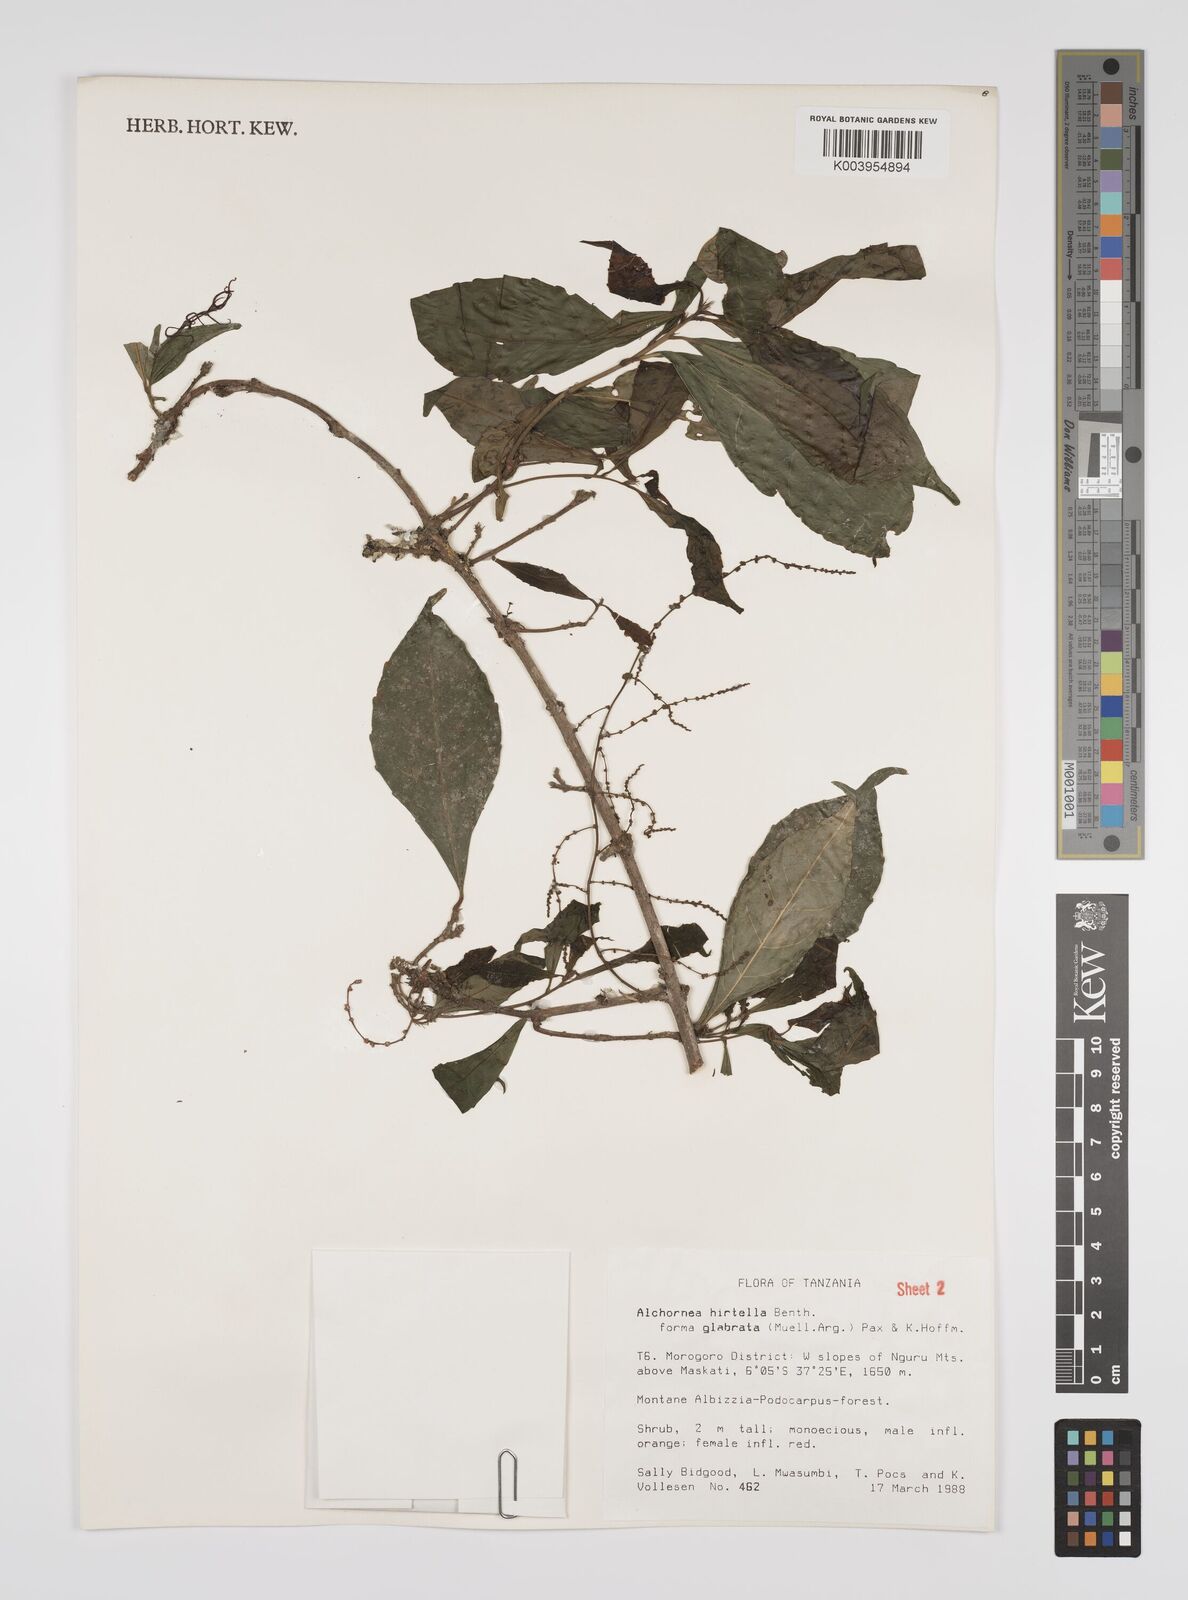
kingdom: Plantae
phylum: Tracheophyta
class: Magnoliopsida
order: Malpighiales
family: Euphorbiaceae
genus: Alchornea
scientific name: Alchornea hirtella
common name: Forest bead-string
